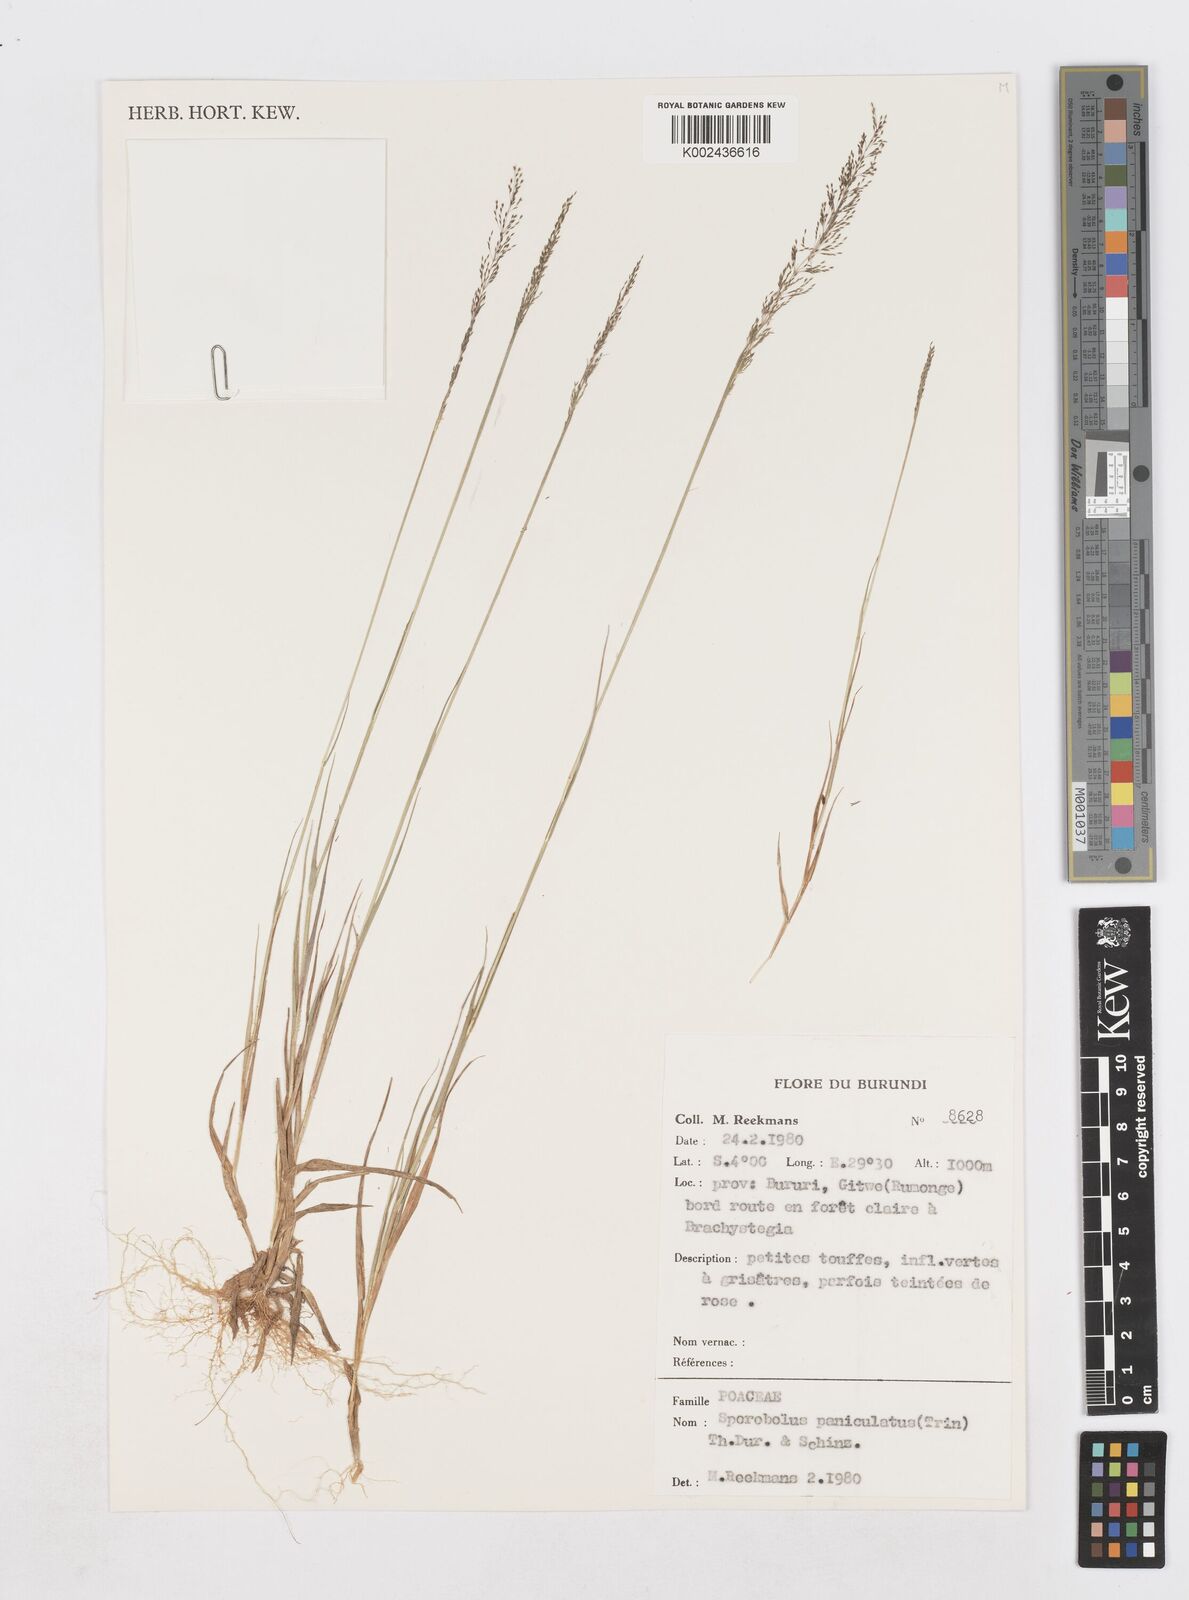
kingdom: Plantae
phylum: Tracheophyta
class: Liliopsida
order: Poales
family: Poaceae
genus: Sporobolus
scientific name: Sporobolus paniculatus
